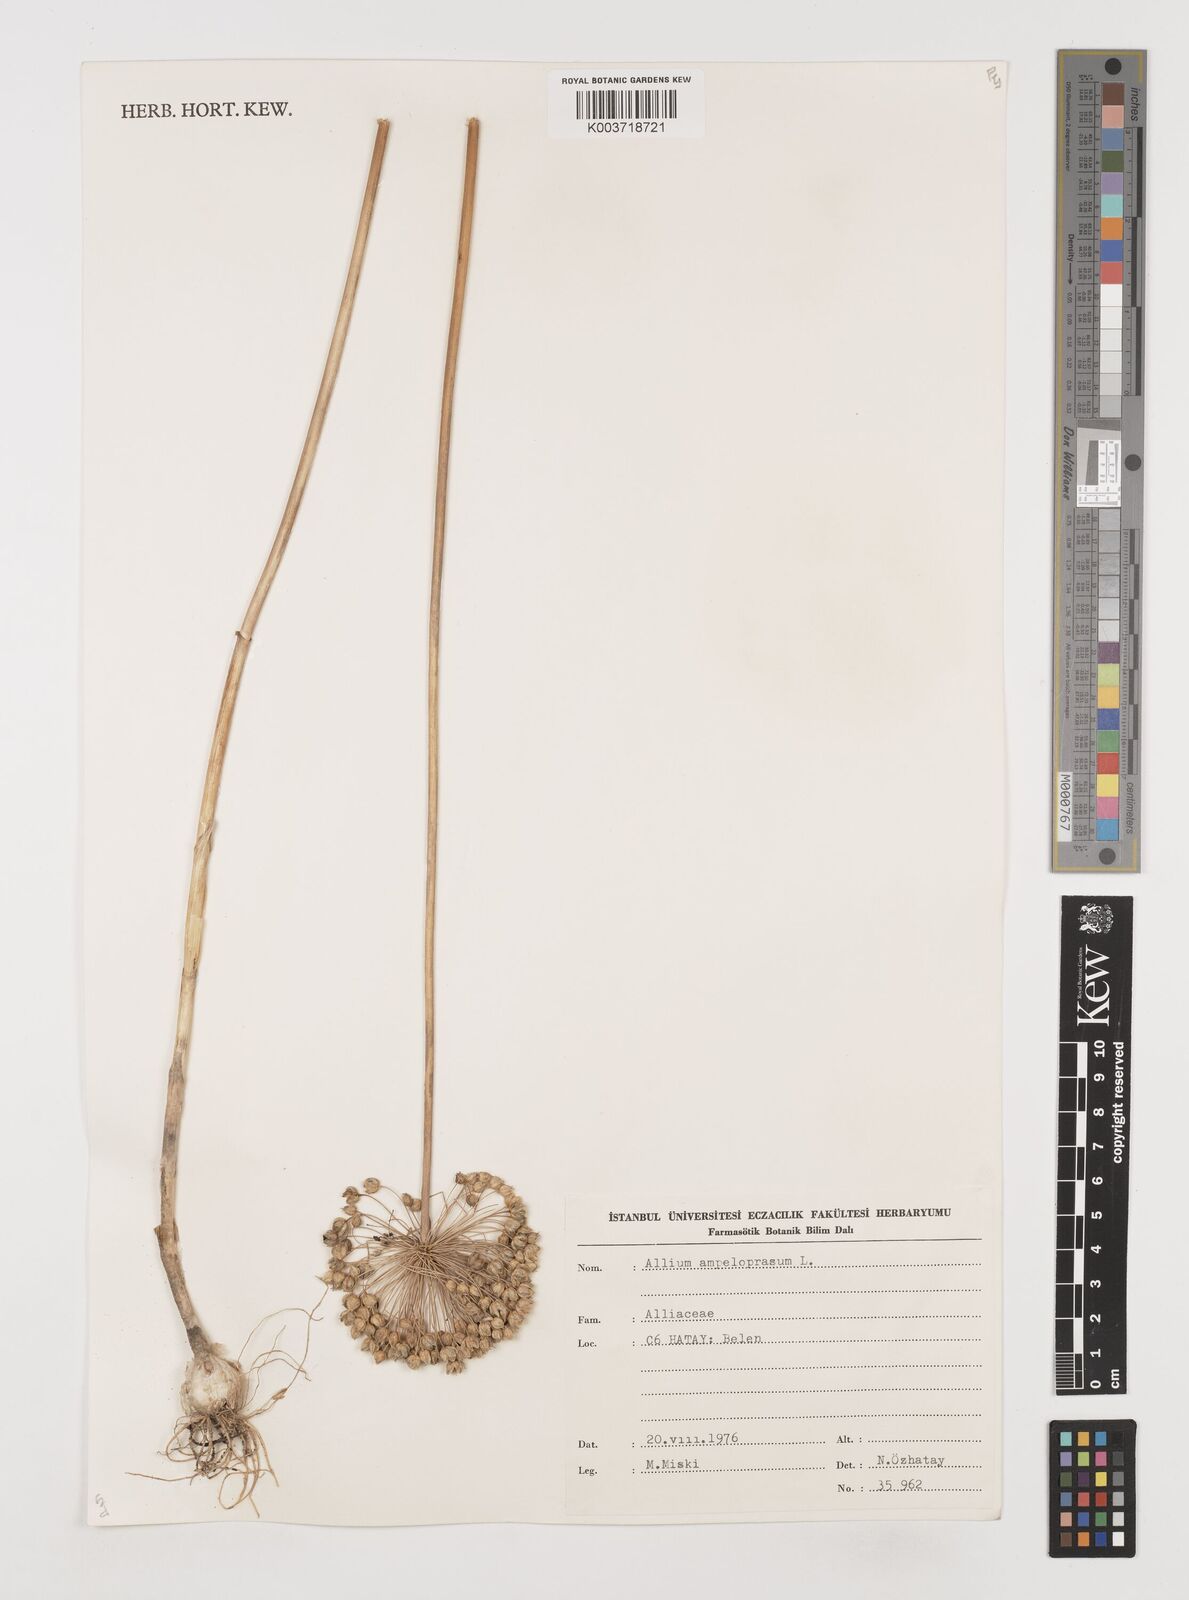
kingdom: Plantae
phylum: Tracheophyta
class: Liliopsida
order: Asparagales
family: Amaryllidaceae
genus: Allium
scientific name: Allium ampeloprasum
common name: Wild leek
